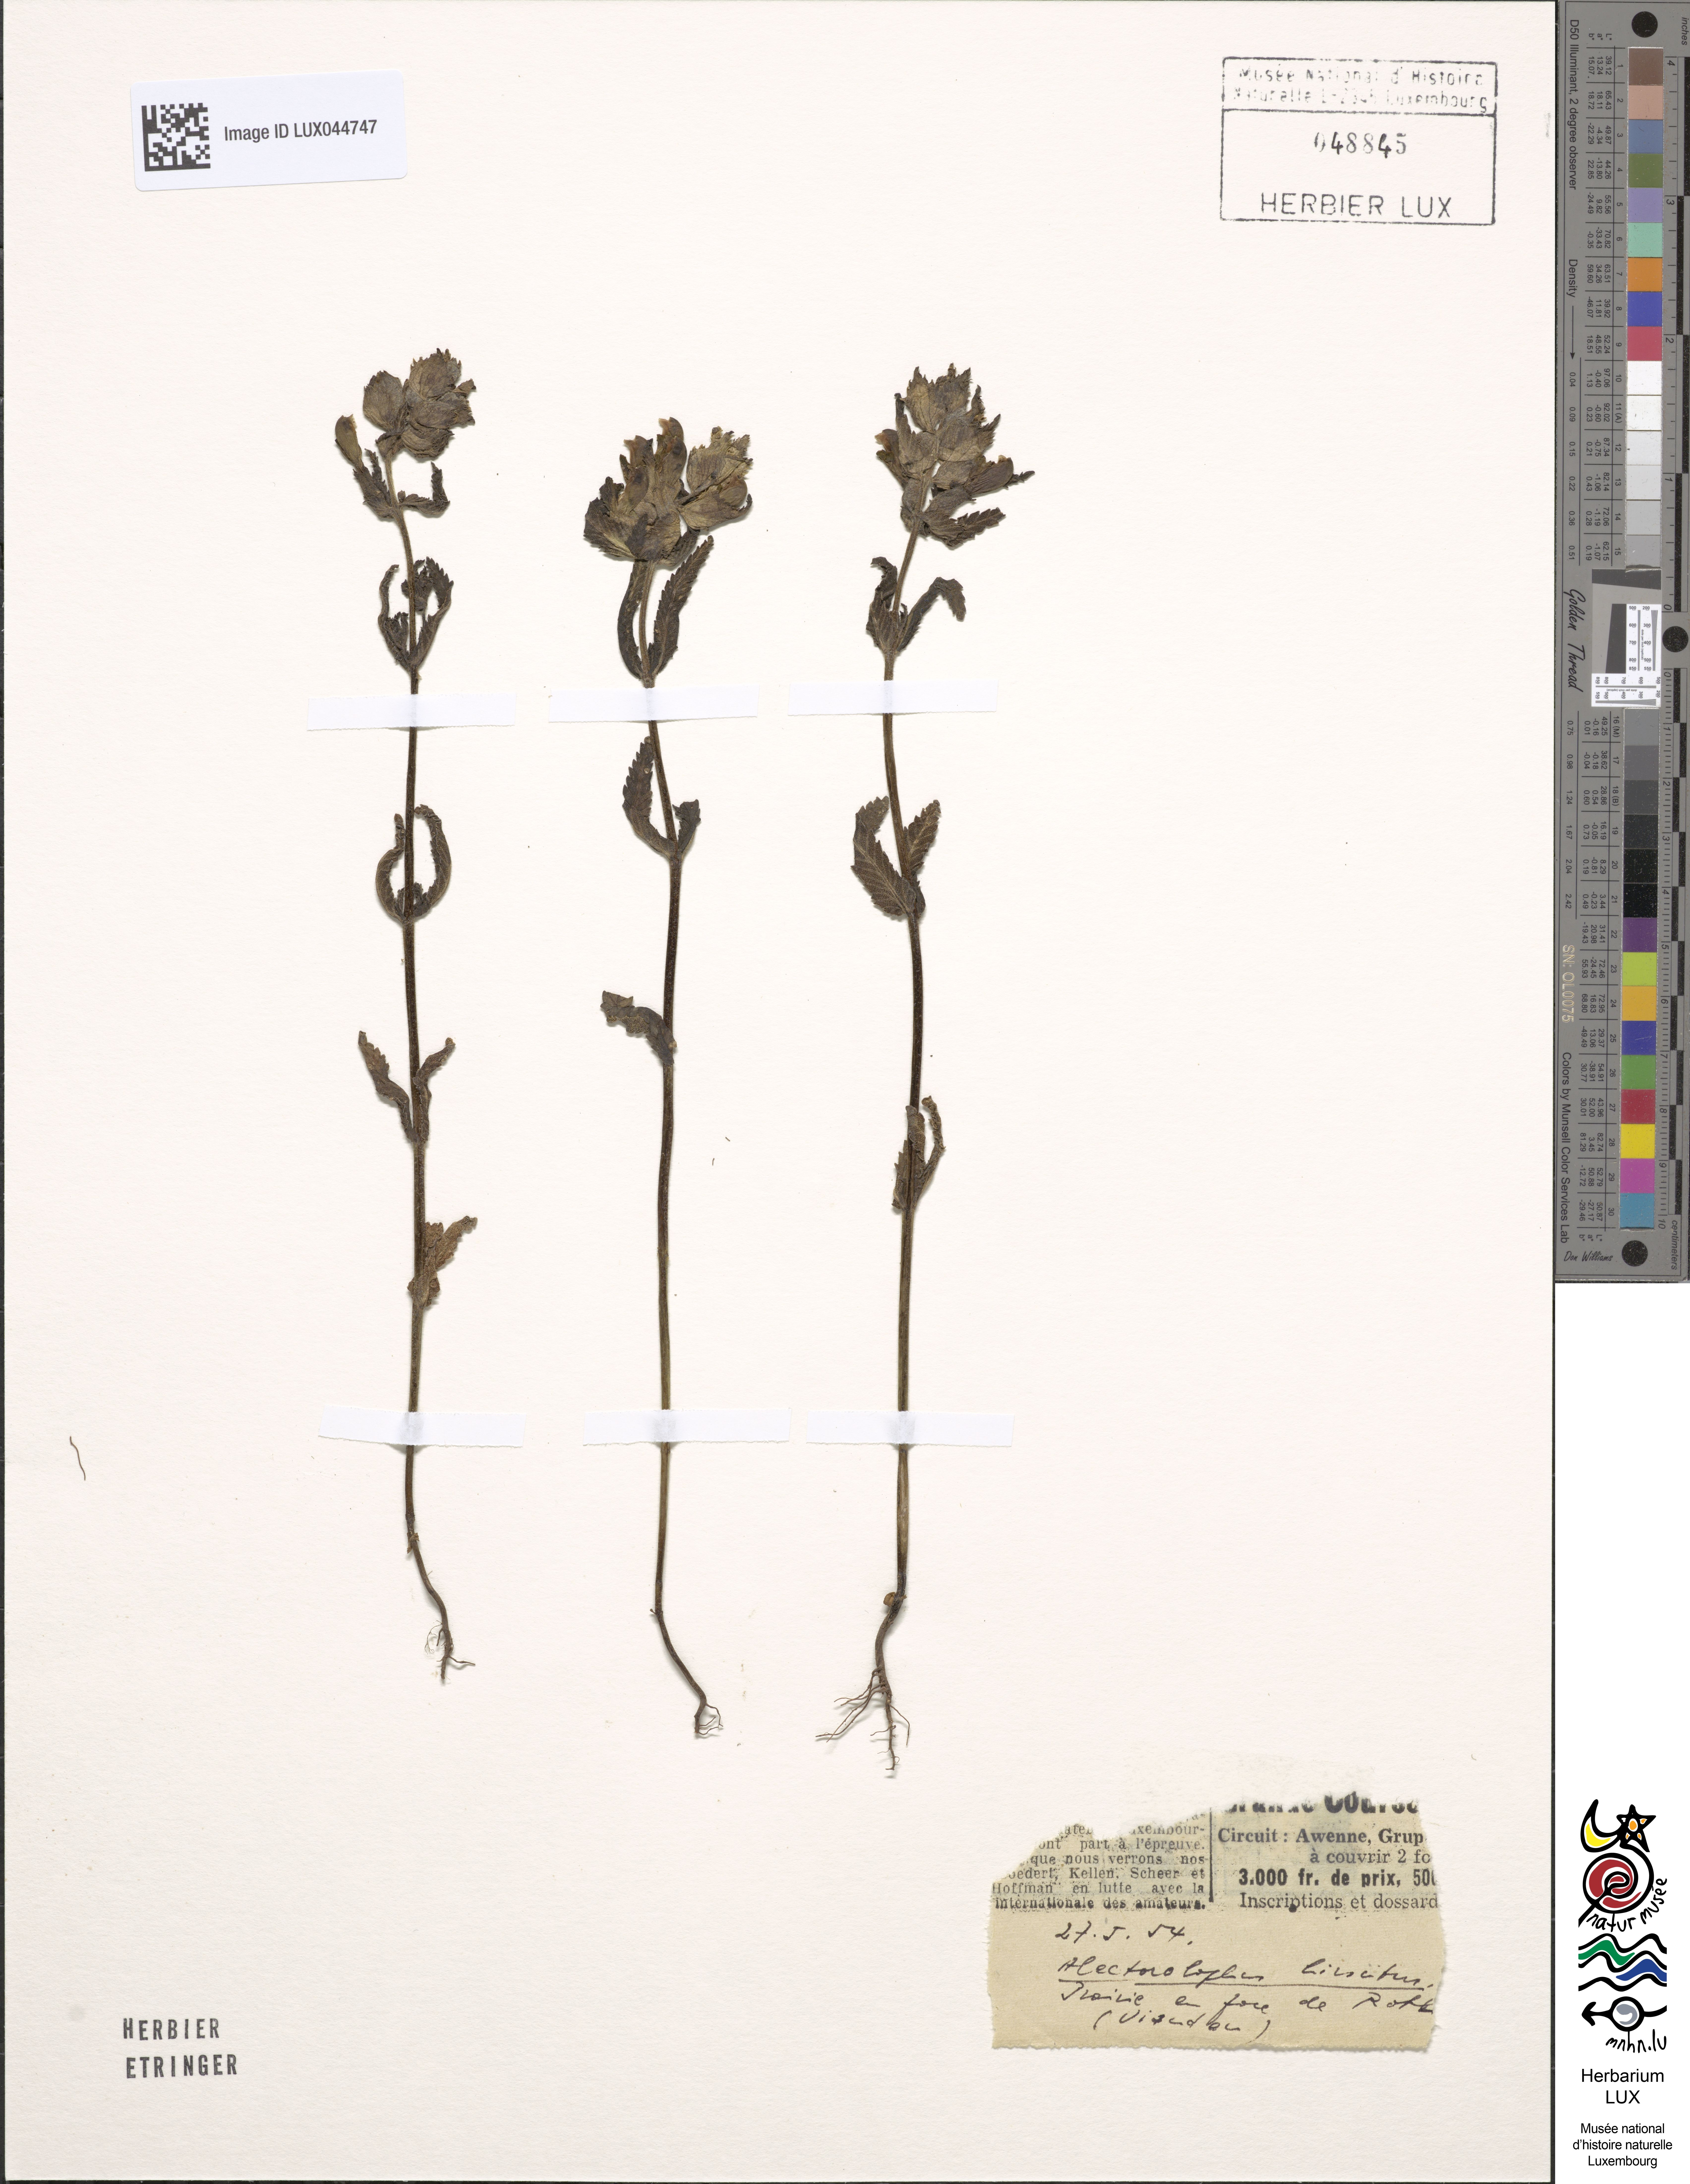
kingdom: Plantae
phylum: Tracheophyta
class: Magnoliopsida
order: Lamiales
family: Orobanchaceae
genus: Rhinanthus
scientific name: Rhinanthus alectorolophus
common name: Greater yellow-rattle
